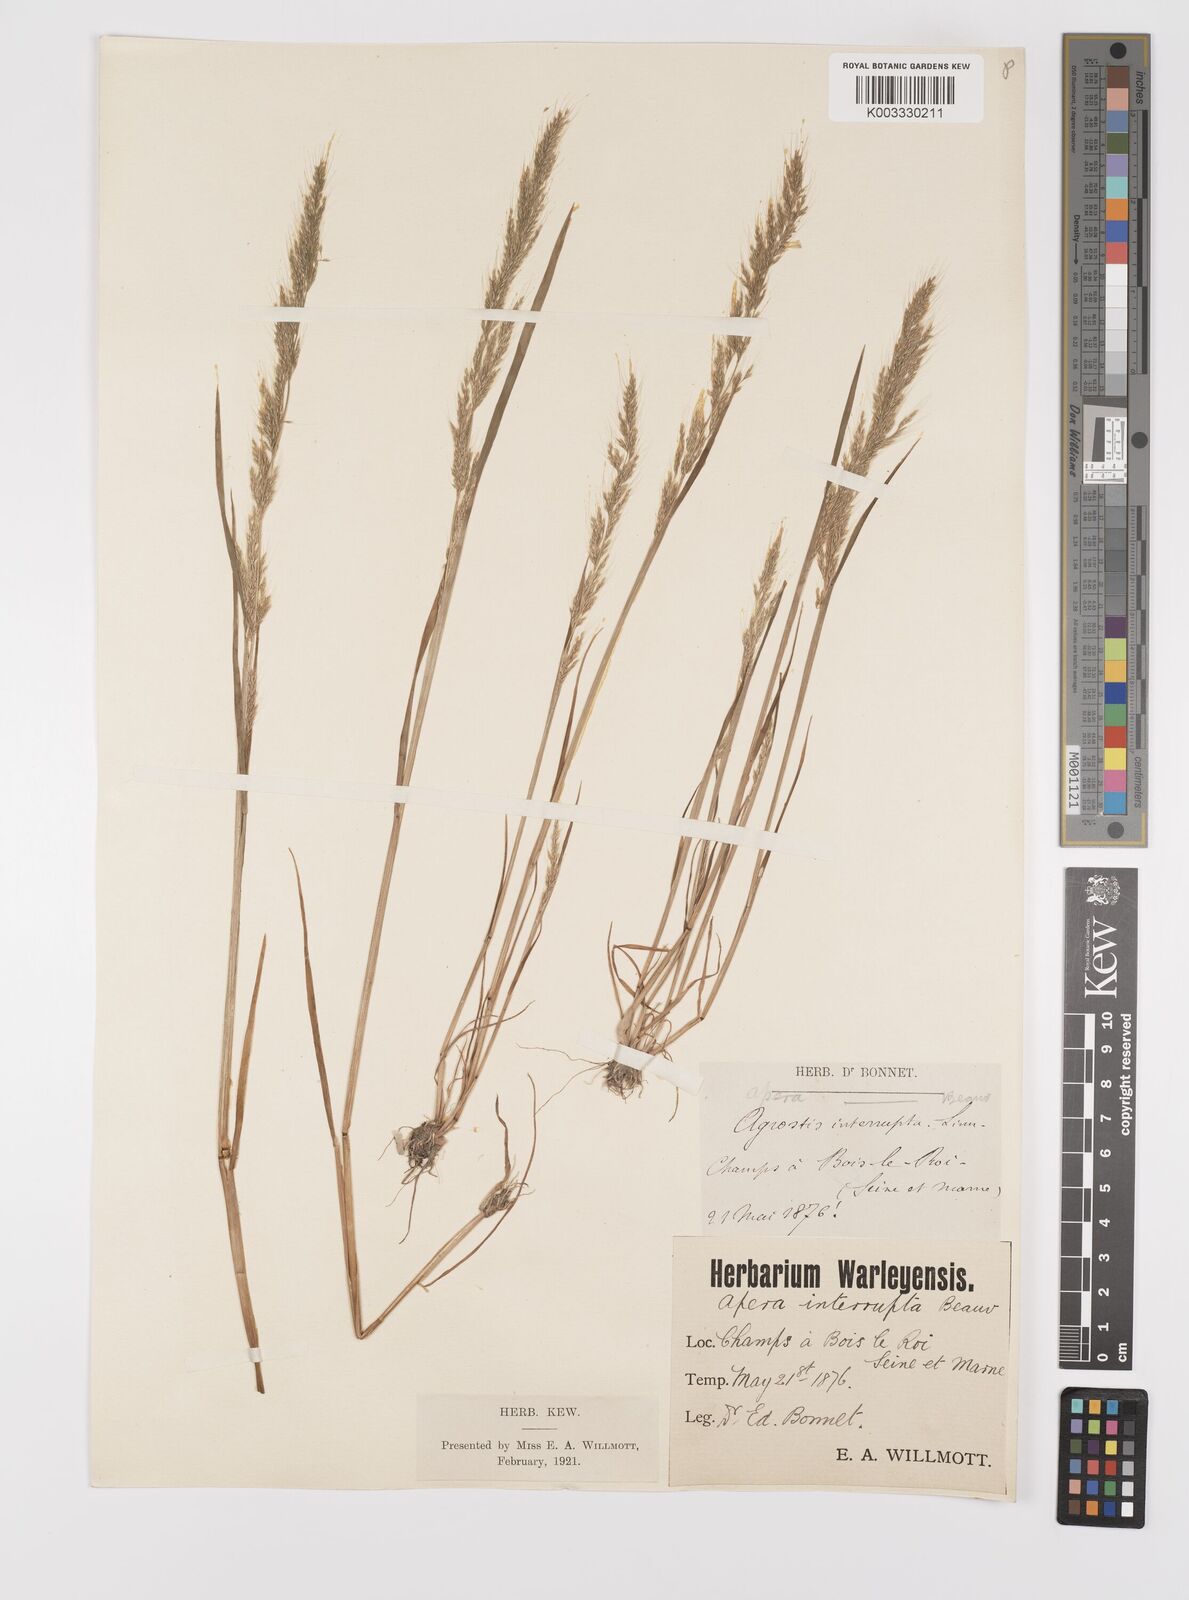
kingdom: Plantae
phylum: Tracheophyta
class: Liliopsida
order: Poales
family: Poaceae
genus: Apera
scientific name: Apera interrupta
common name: Dense silky-bent
